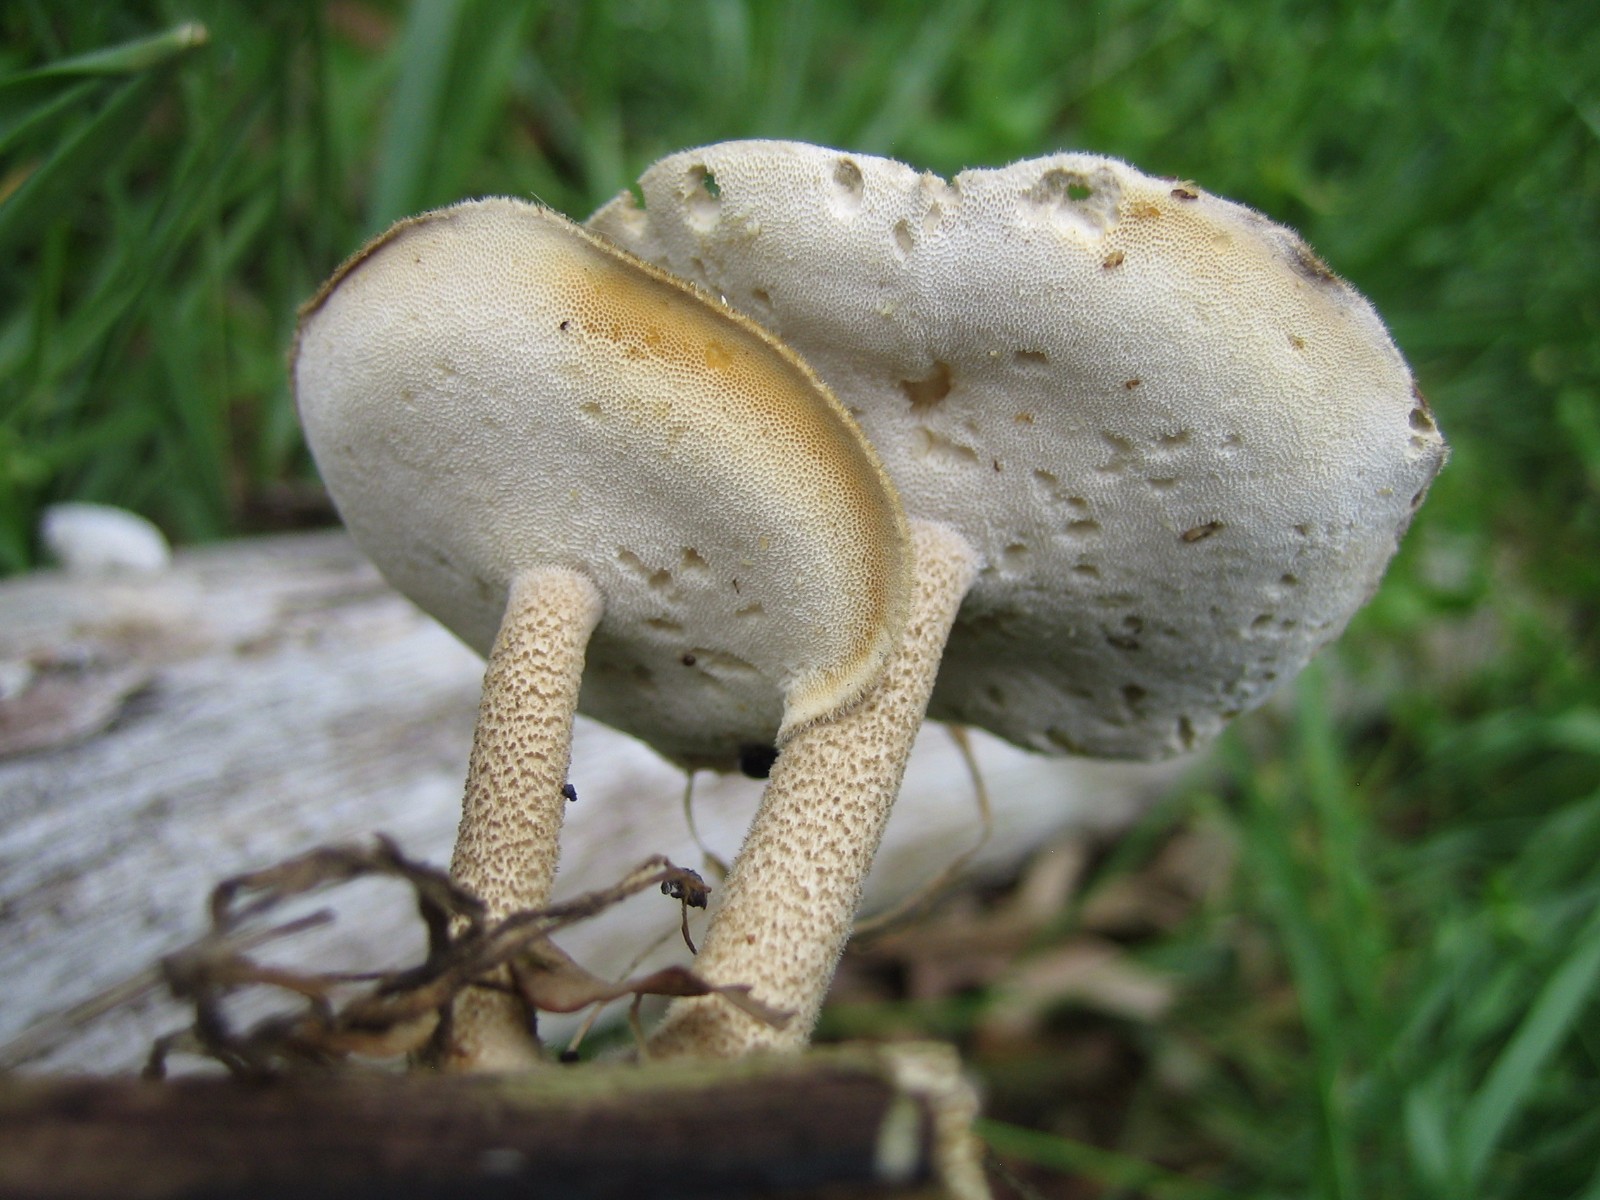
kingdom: Fungi
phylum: Basidiomycota
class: Agaricomycetes
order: Polyporales
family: Polyporaceae
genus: Lentinus
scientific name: Lentinus substrictus
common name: forårs-stilkporesvamp
